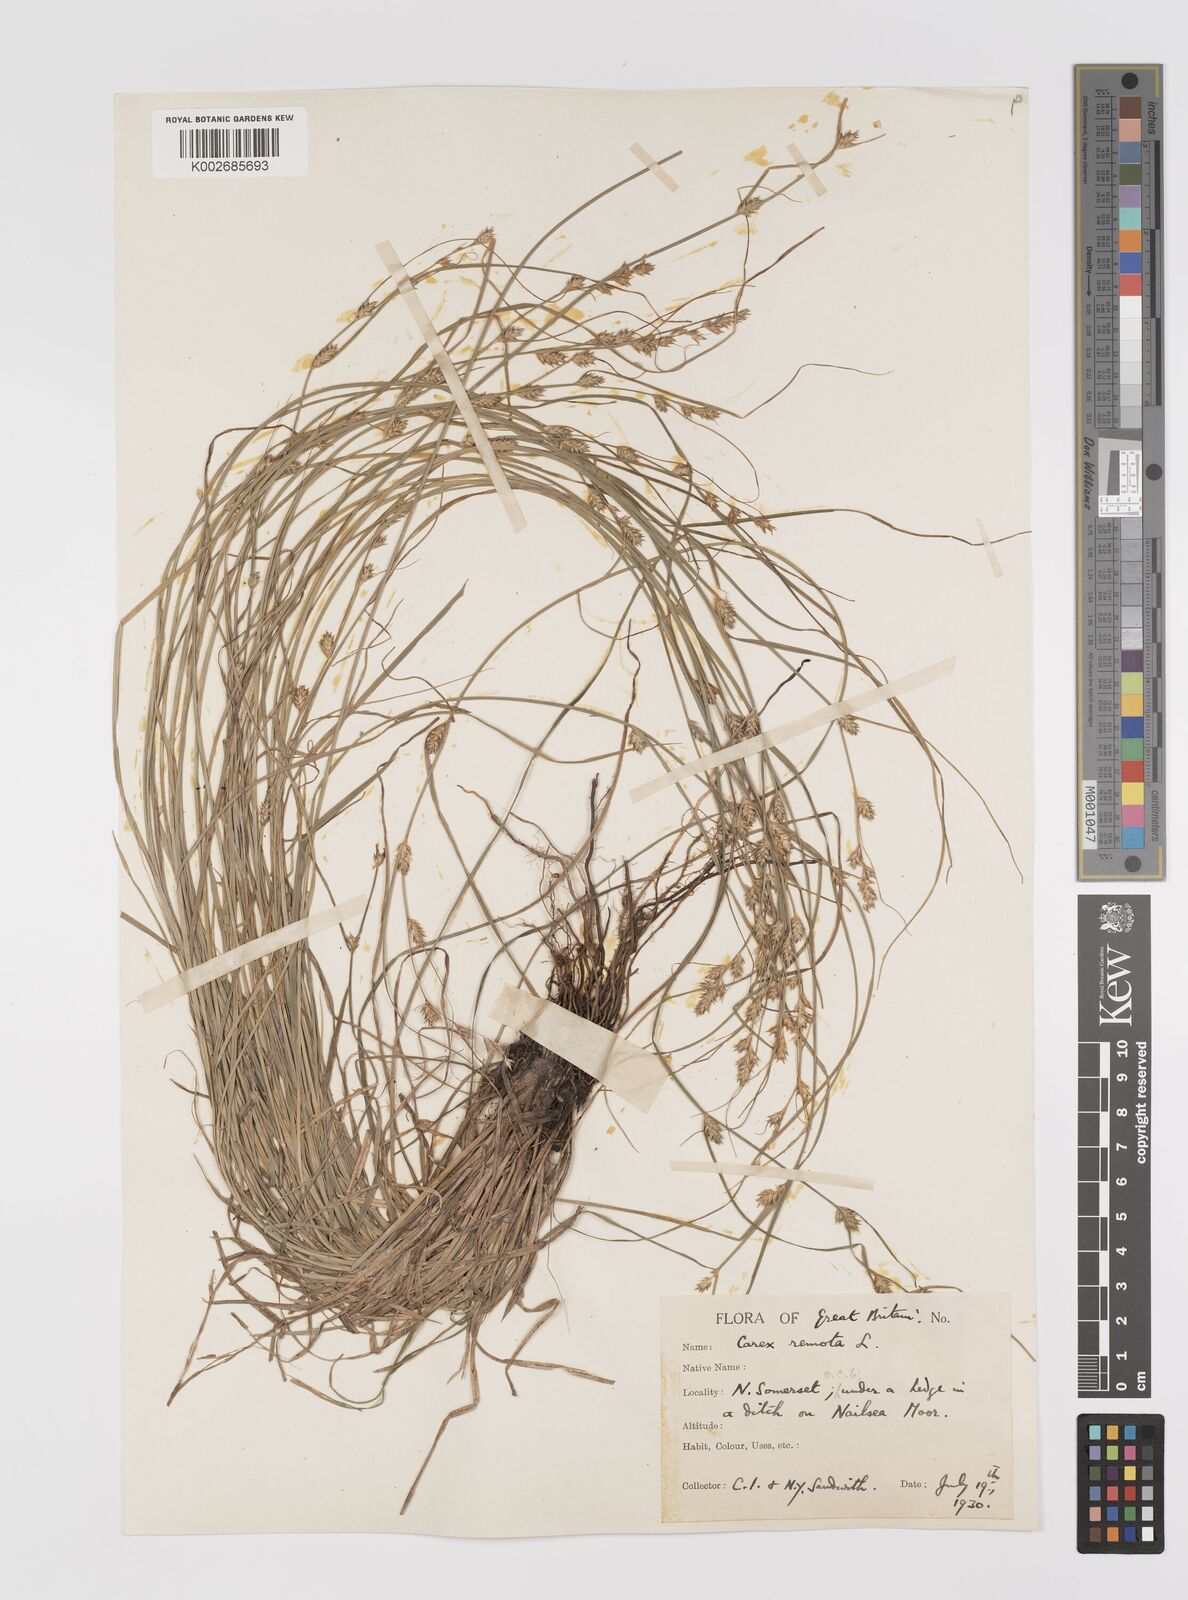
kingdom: Plantae
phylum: Tracheophyta
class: Liliopsida
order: Poales
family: Cyperaceae
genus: Carex
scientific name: Carex remota
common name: Remote sedge
